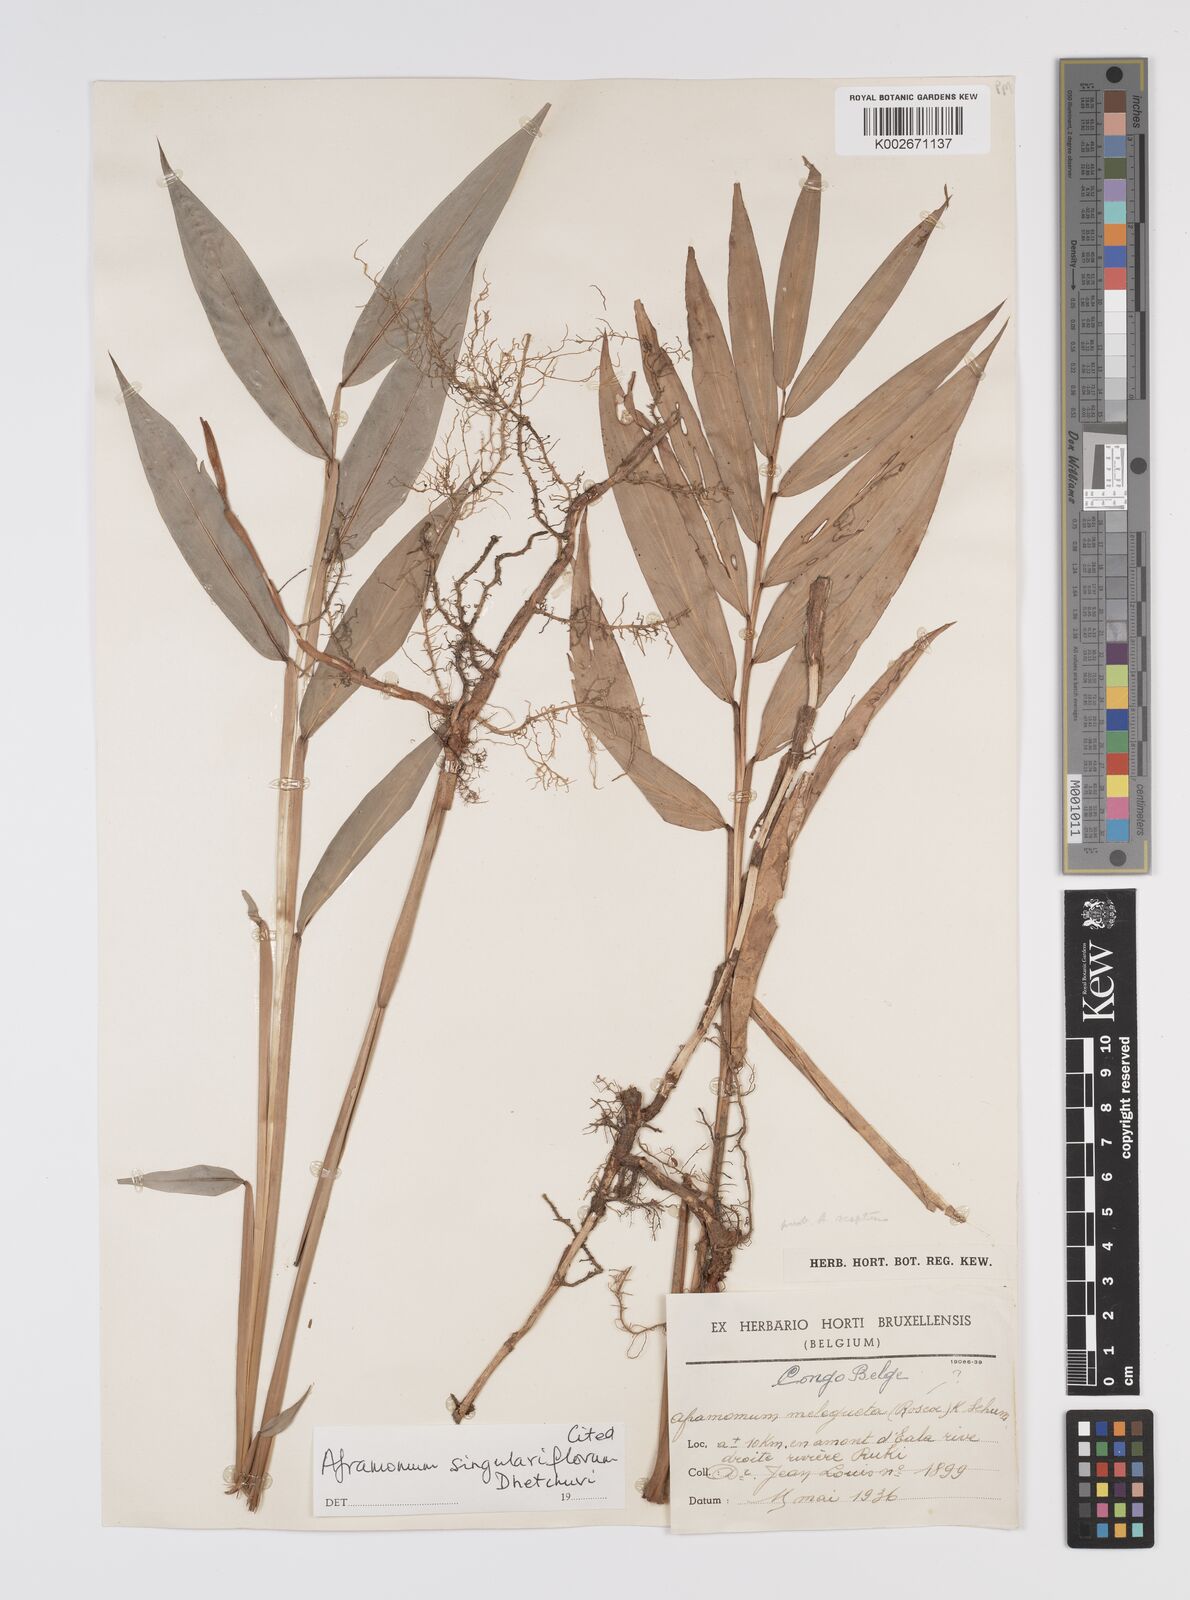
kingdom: Plantae
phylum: Tracheophyta
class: Liliopsida
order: Zingiberales
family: Zingiberaceae
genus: Aframomum
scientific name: Aframomum singulariflorum
